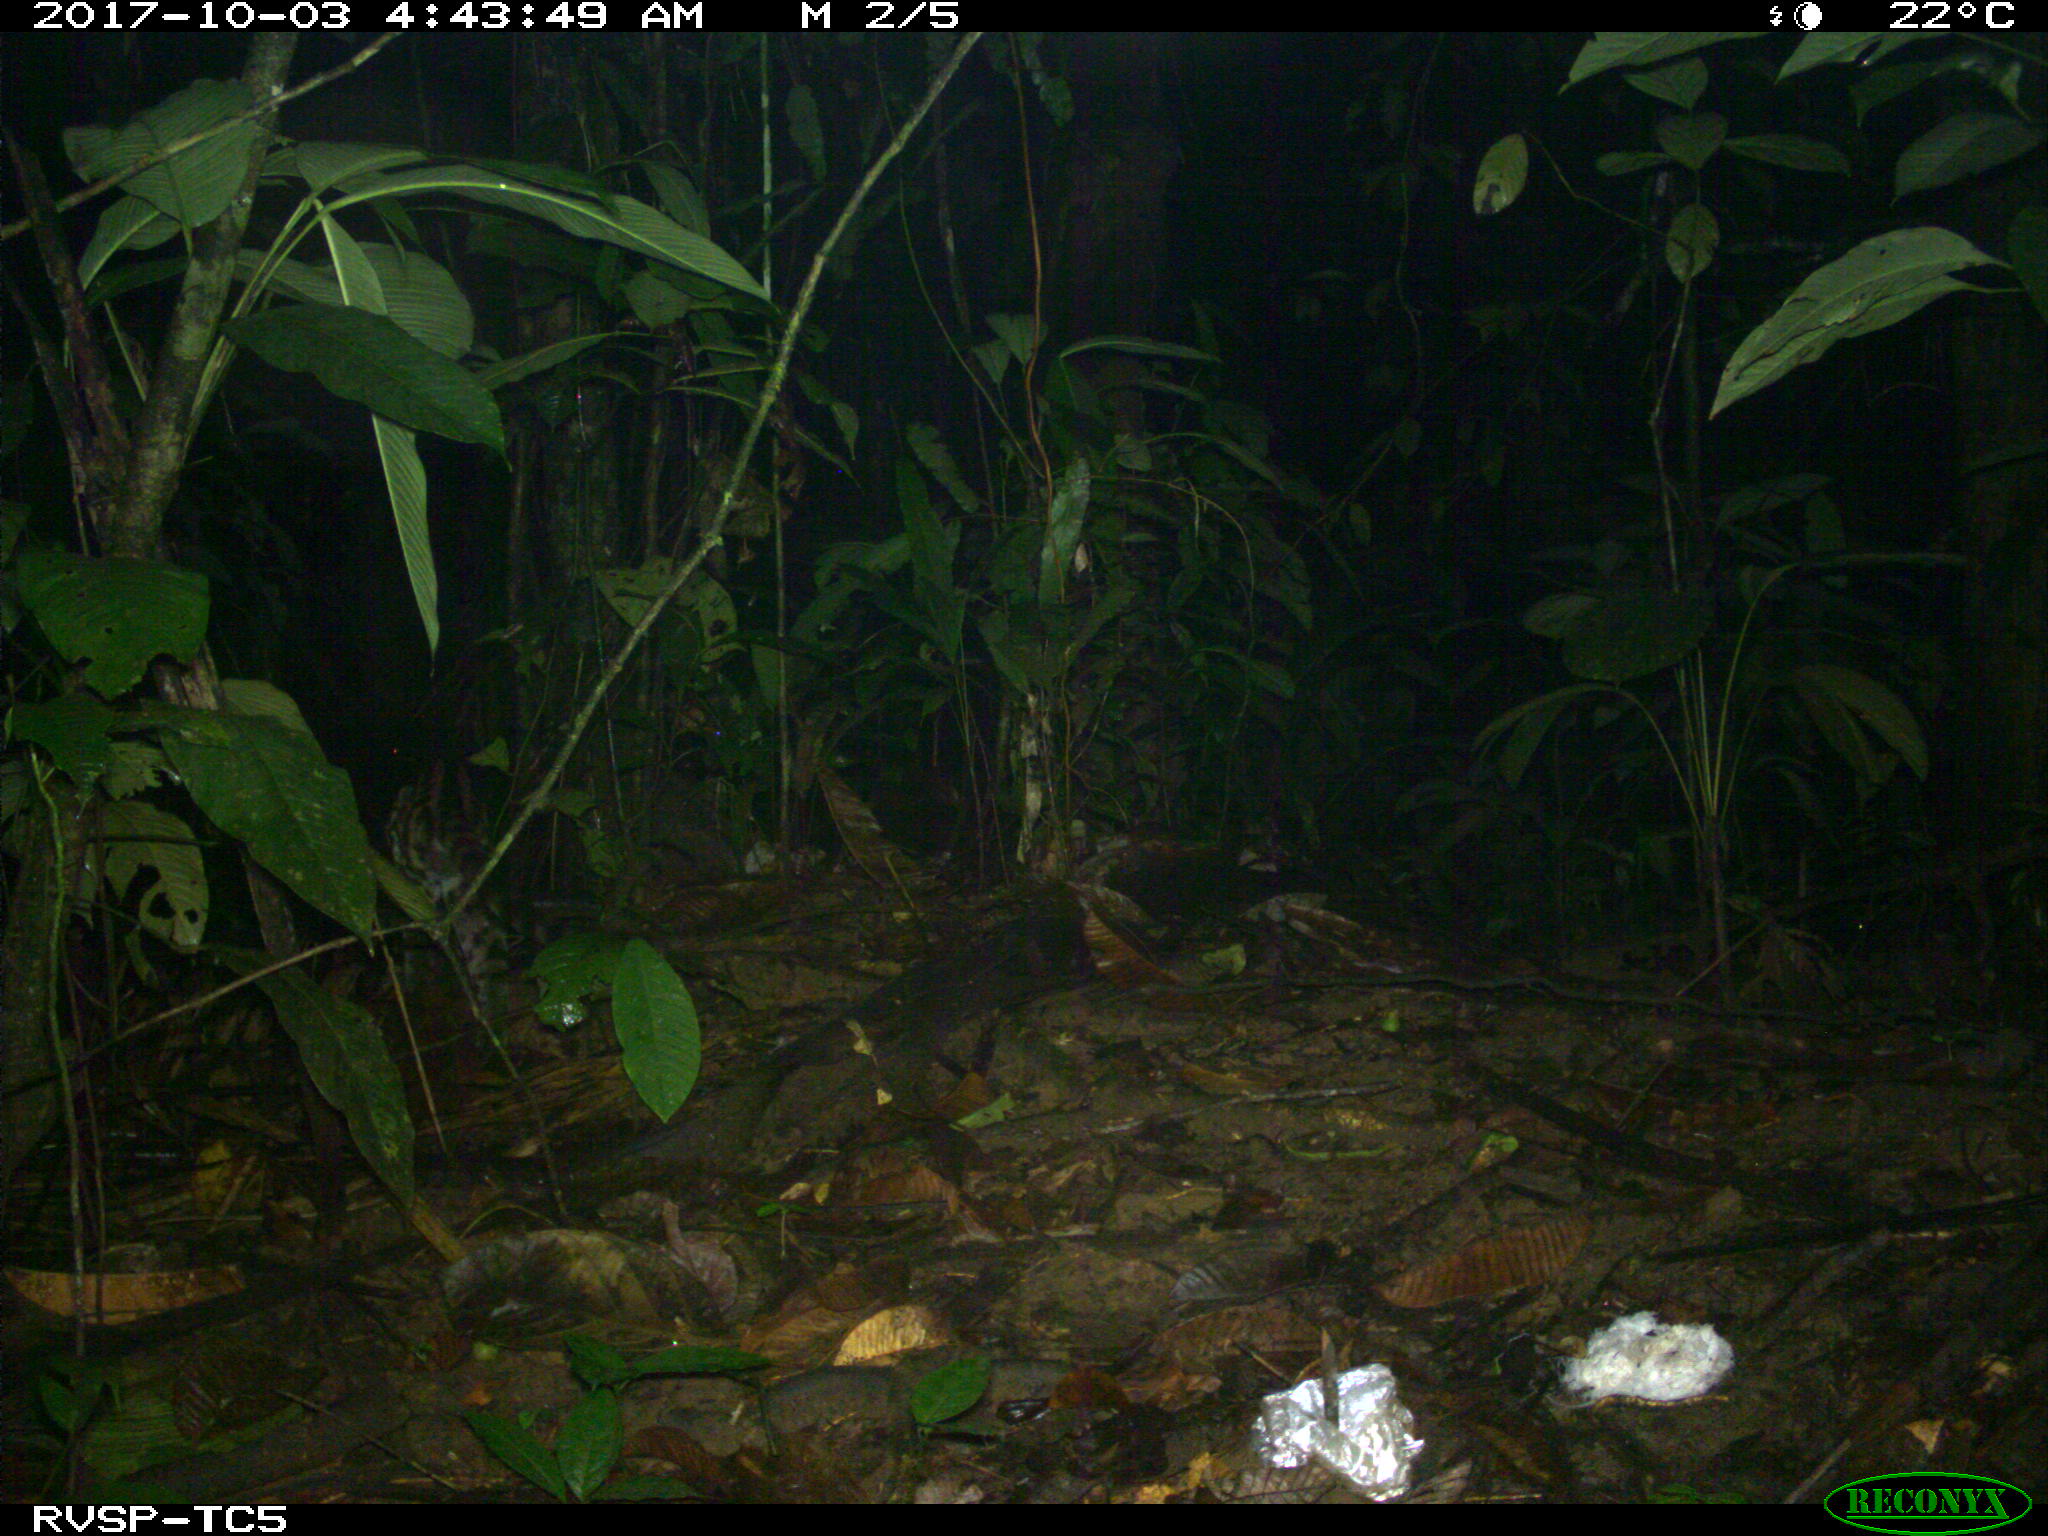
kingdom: Animalia
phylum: Chordata
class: Mammalia
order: Carnivora
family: Felidae
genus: Leopardus
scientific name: Leopardus pardalis
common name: Ocelot
